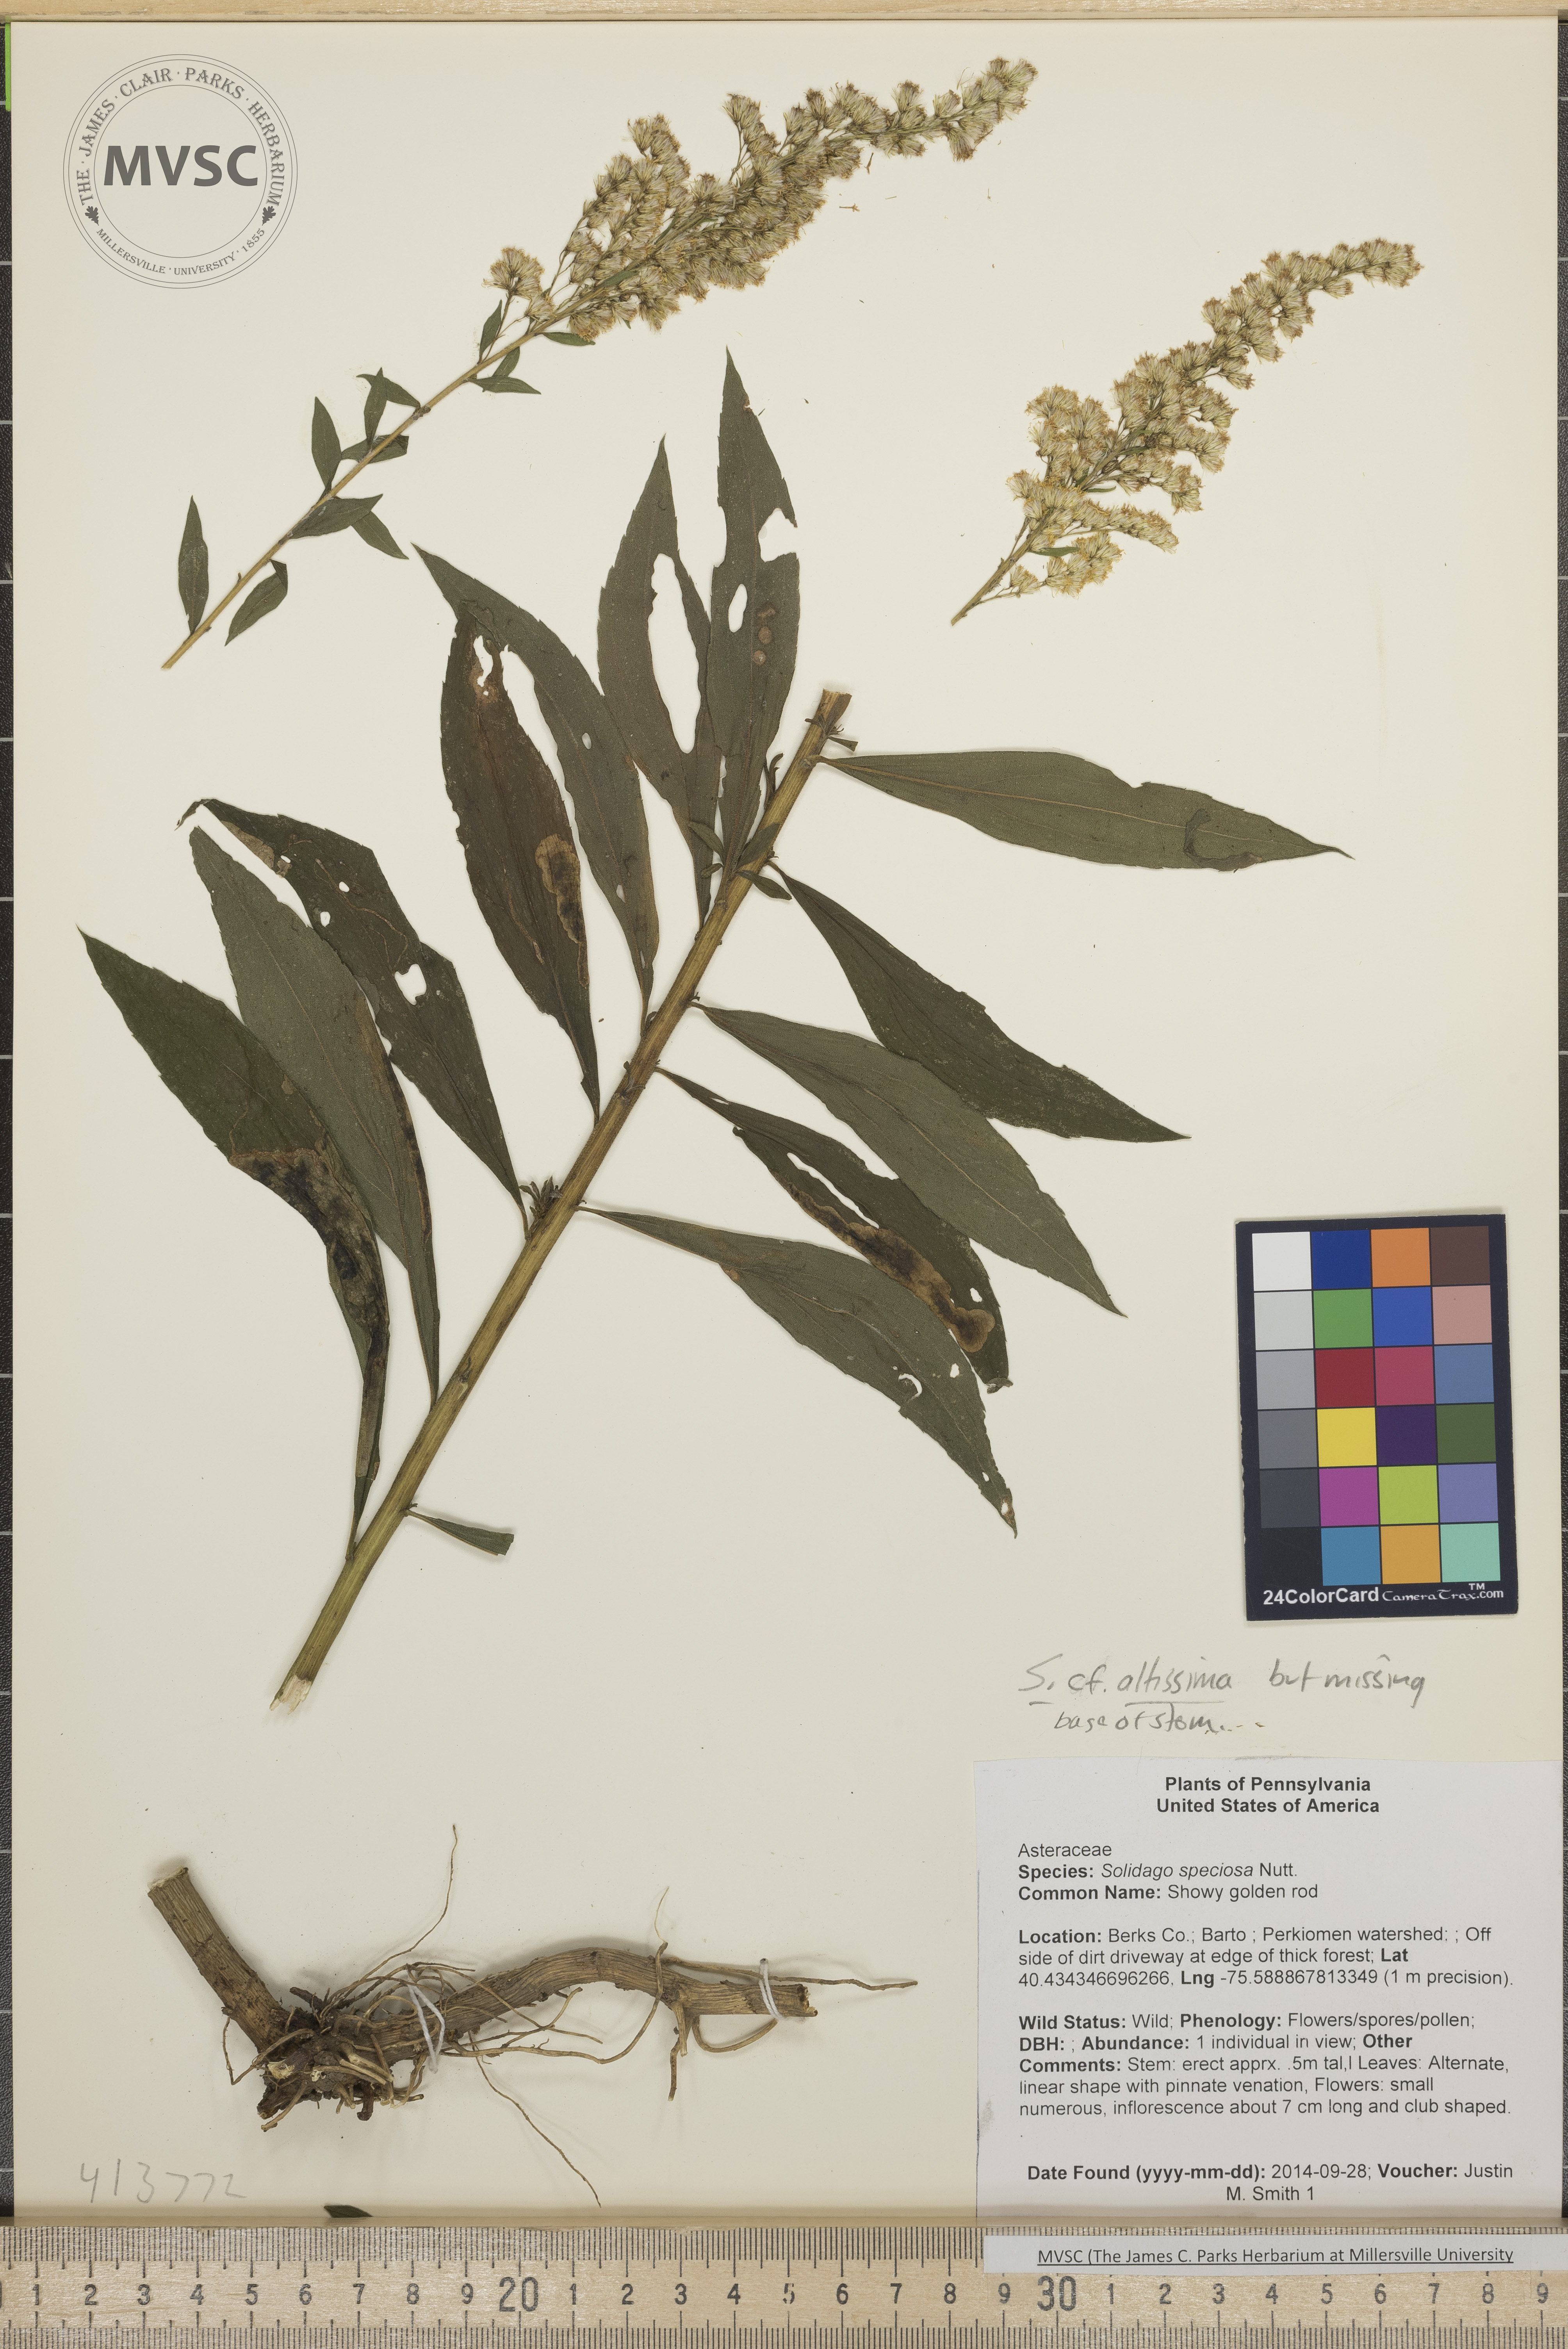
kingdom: Plantae
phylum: Tracheophyta
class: Magnoliopsida
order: Asterales
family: Asteraceae
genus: Solidago
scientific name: Solidago altissima
